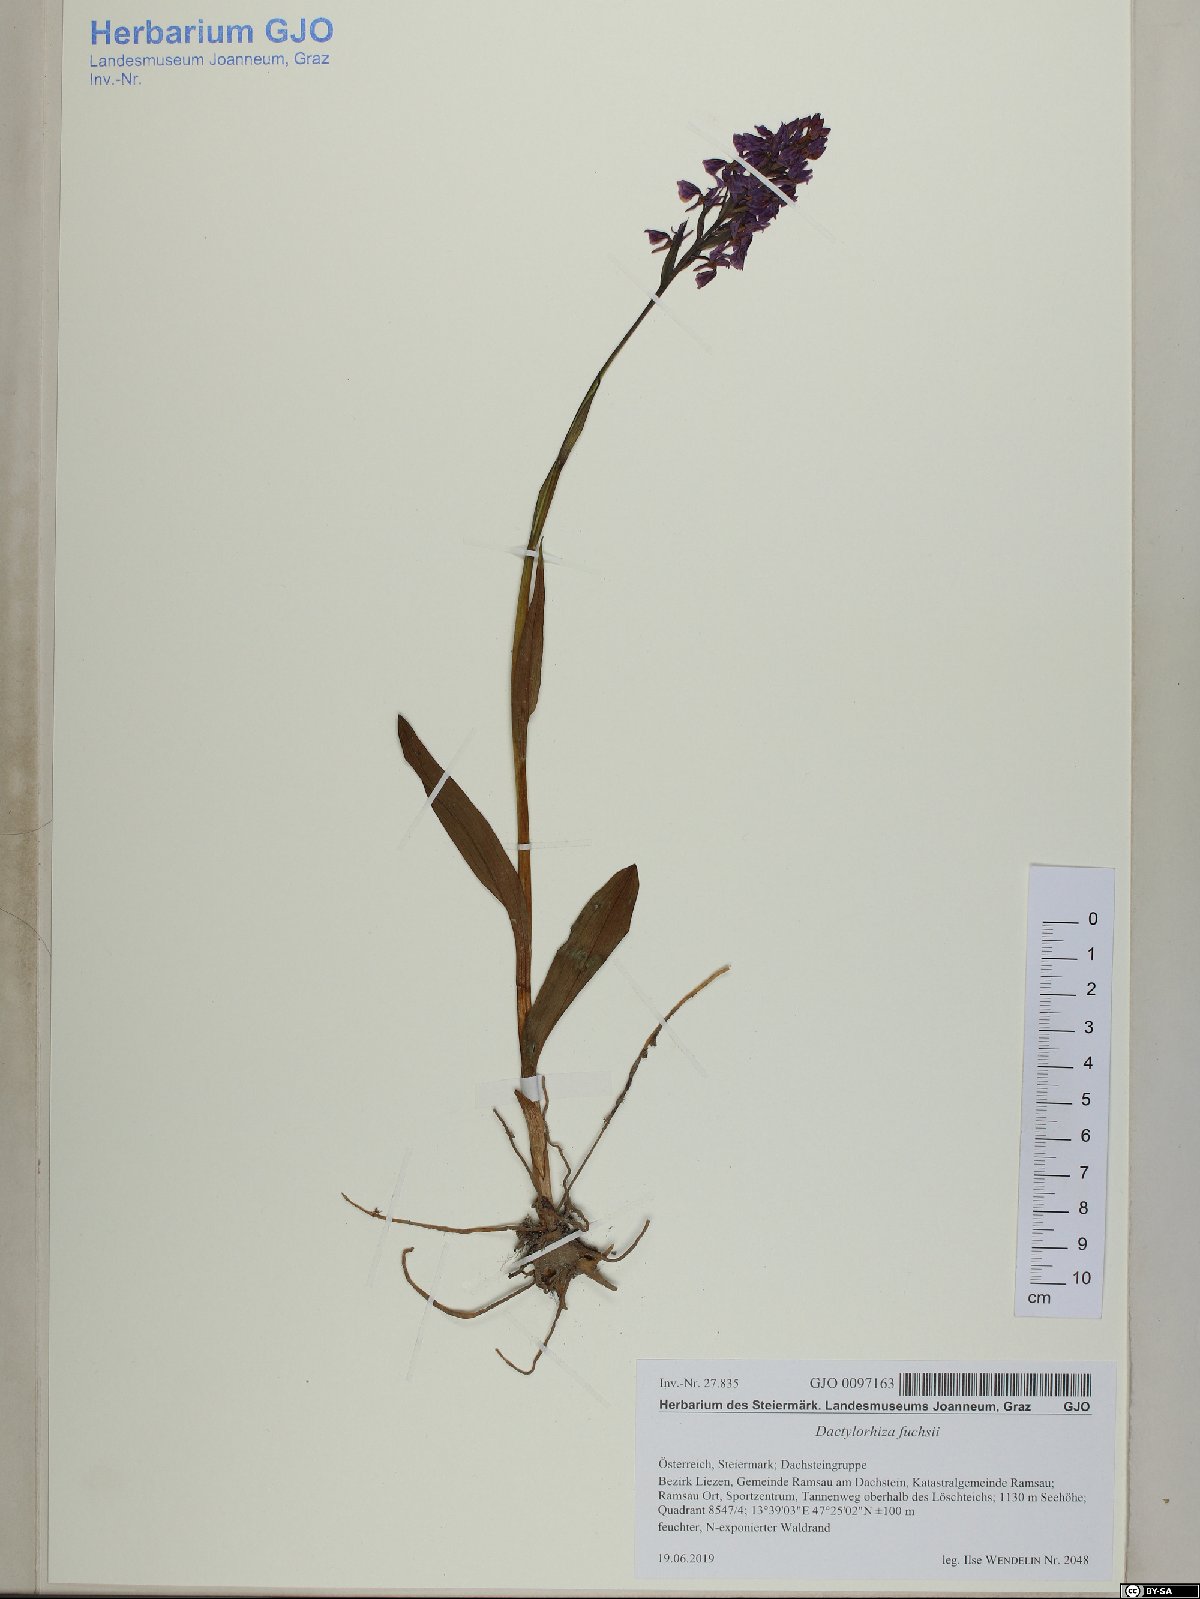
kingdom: Plantae
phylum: Tracheophyta
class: Liliopsida
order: Asparagales
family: Orchidaceae
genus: Dactylorhiza
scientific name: Dactylorhiza maculata
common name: Heath spotted-orchid
